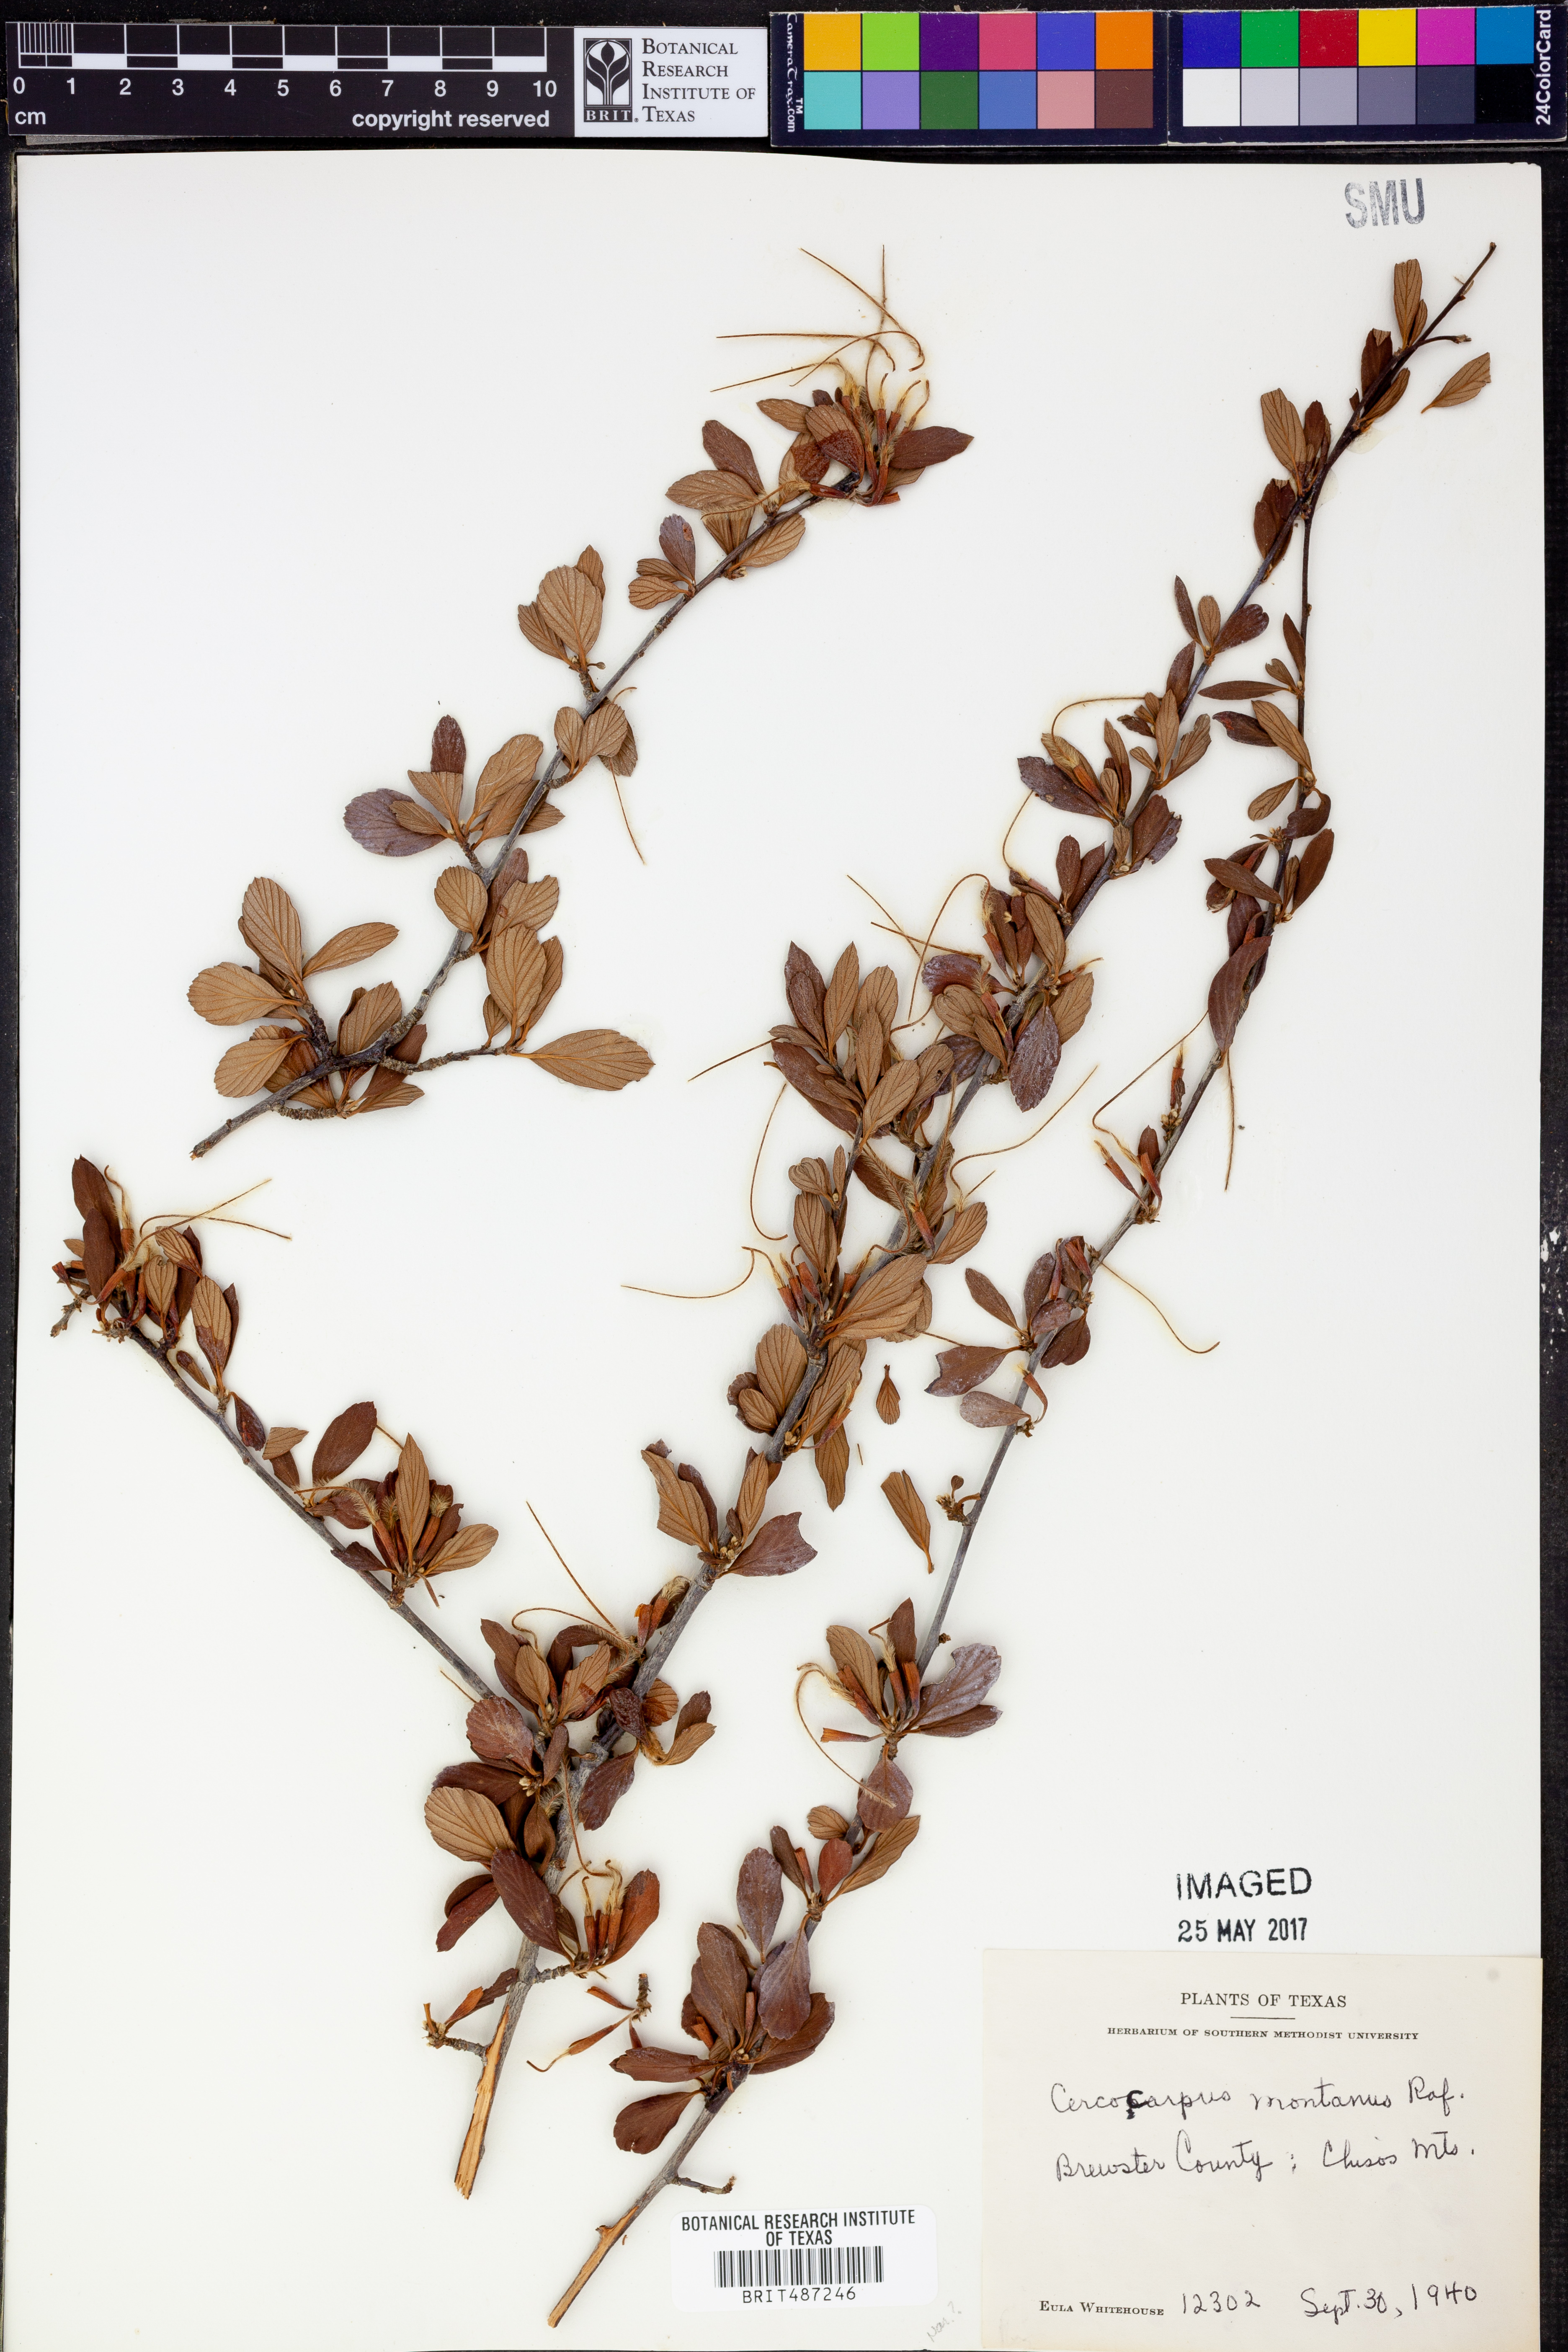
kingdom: Plantae
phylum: Tracheophyta
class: Magnoliopsida
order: Rosales
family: Rosaceae
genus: Cercocarpus
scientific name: Cercocarpus montanus
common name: Alder-leaf cercocarpus
